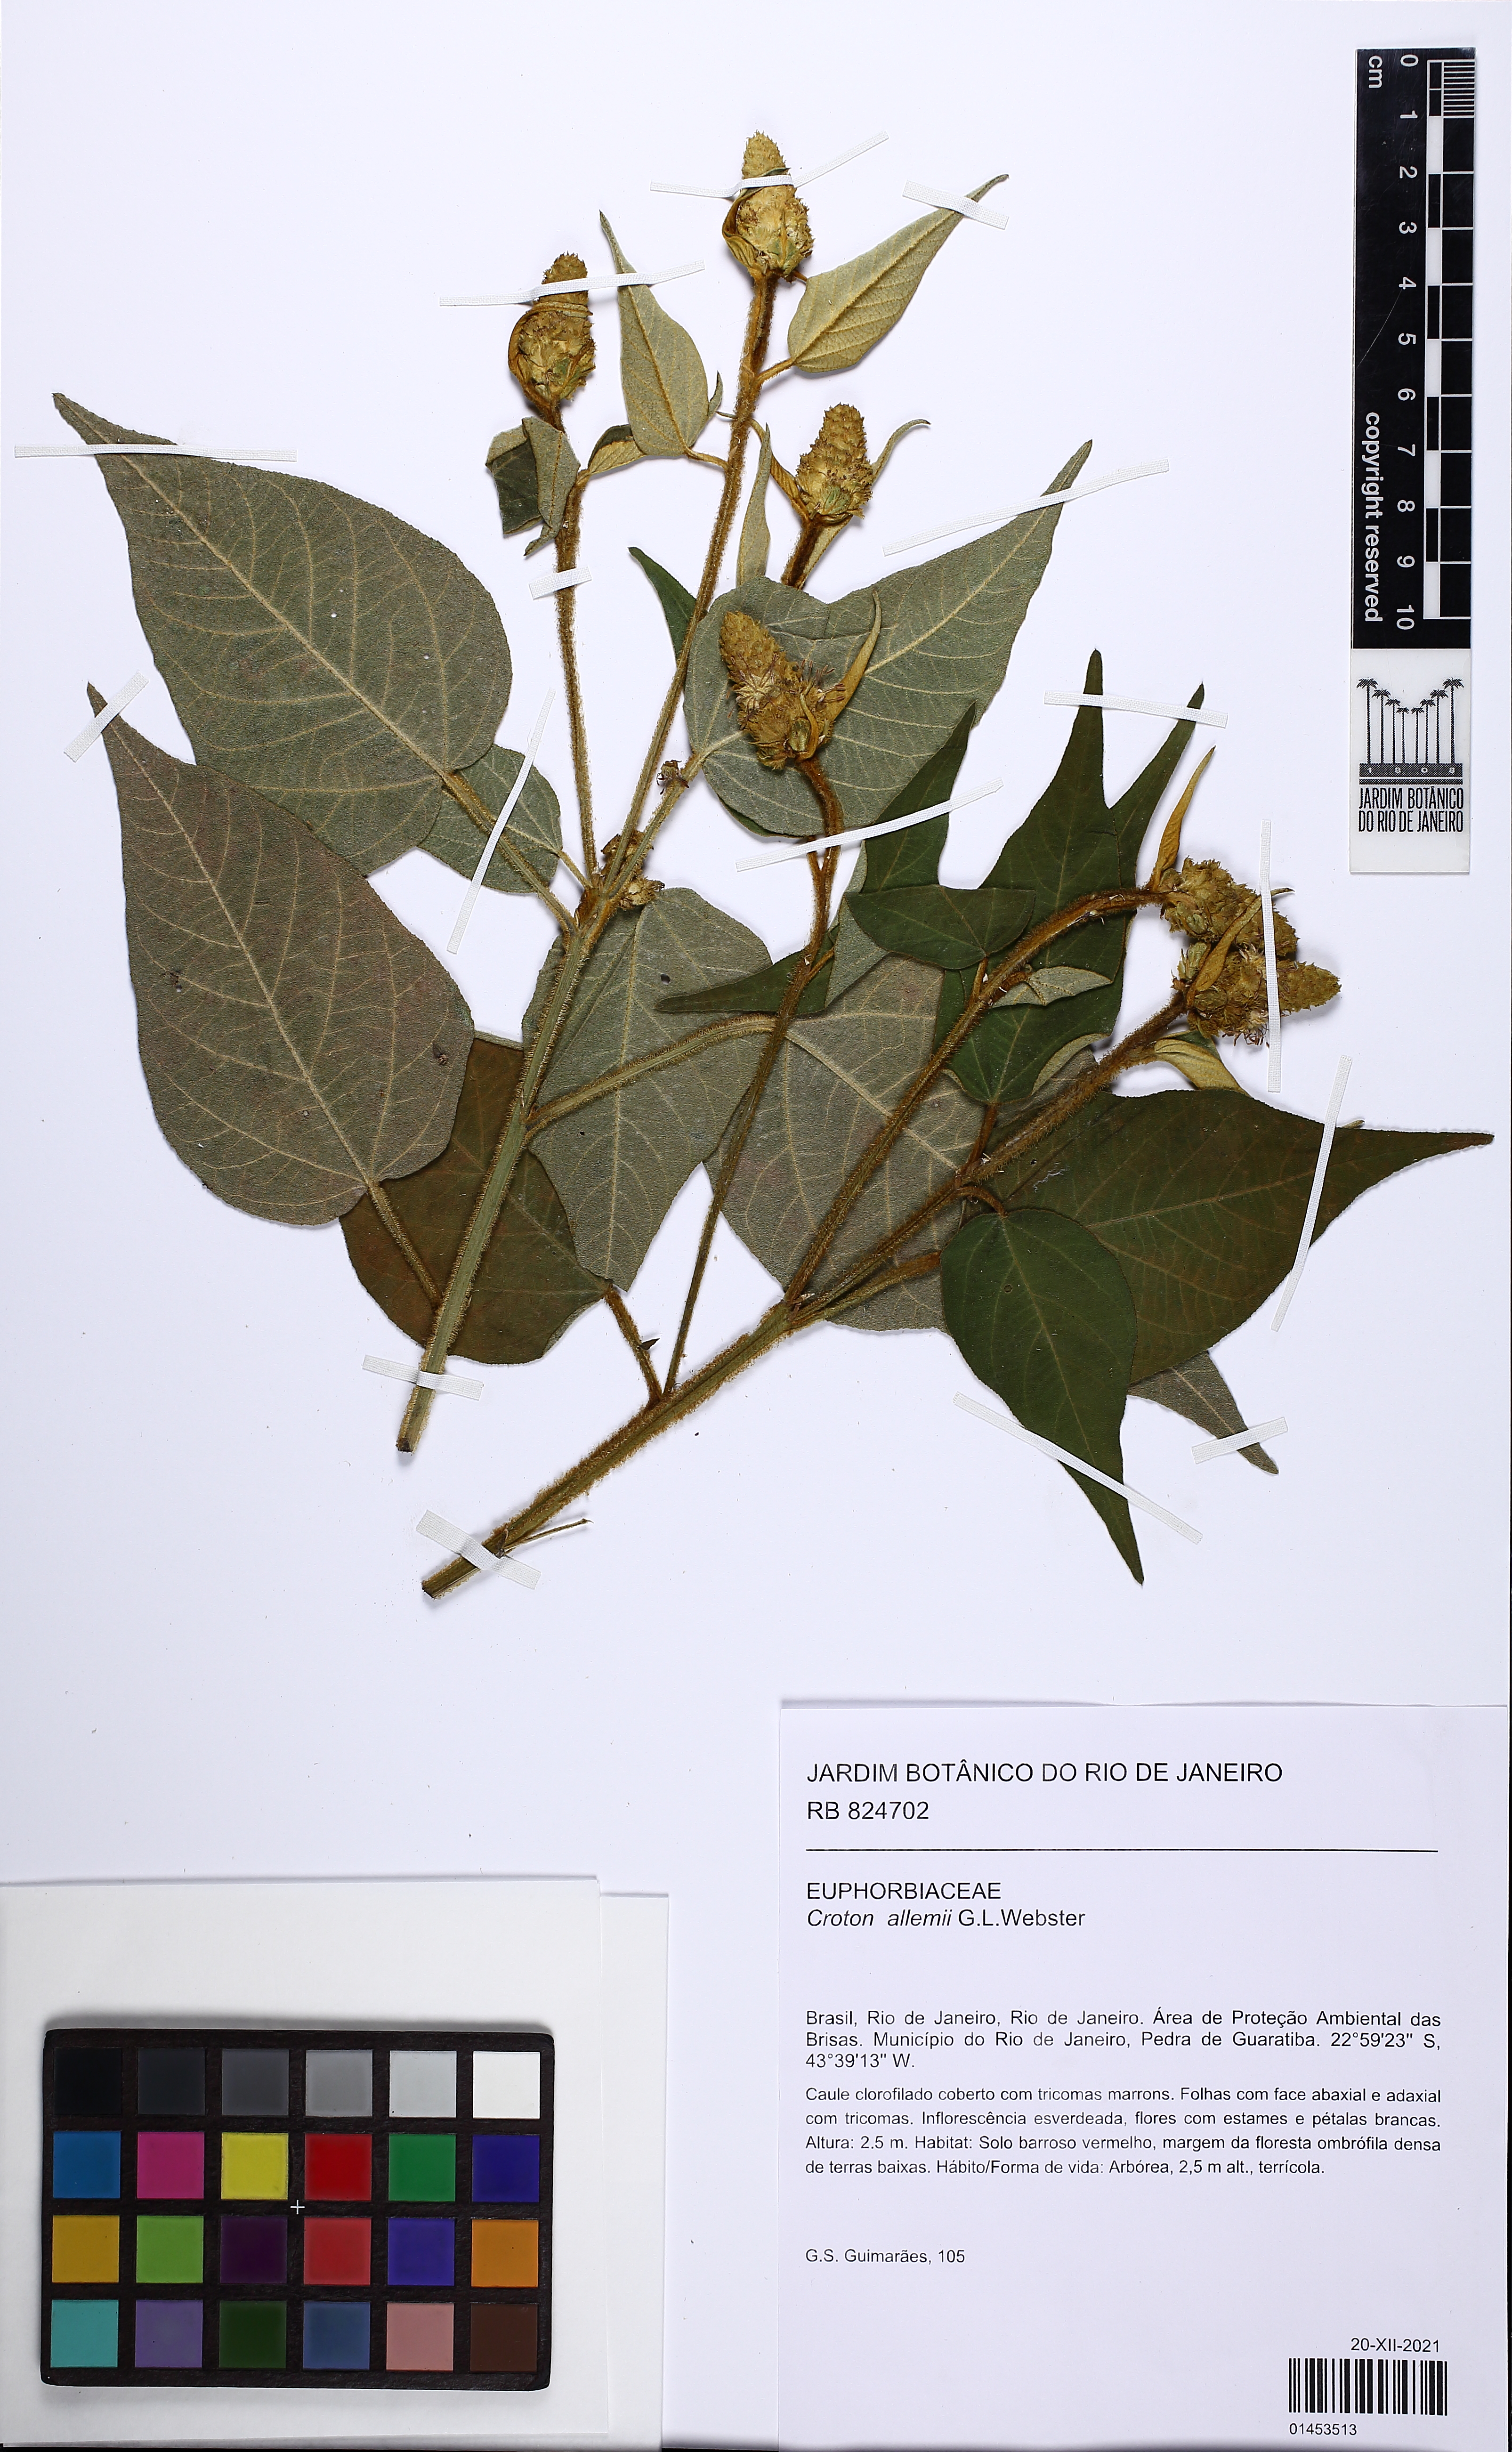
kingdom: Plantae
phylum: Tracheophyta
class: Magnoliopsida
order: Malpighiales
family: Euphorbiaceae
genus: Croton
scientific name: Croton allemii
